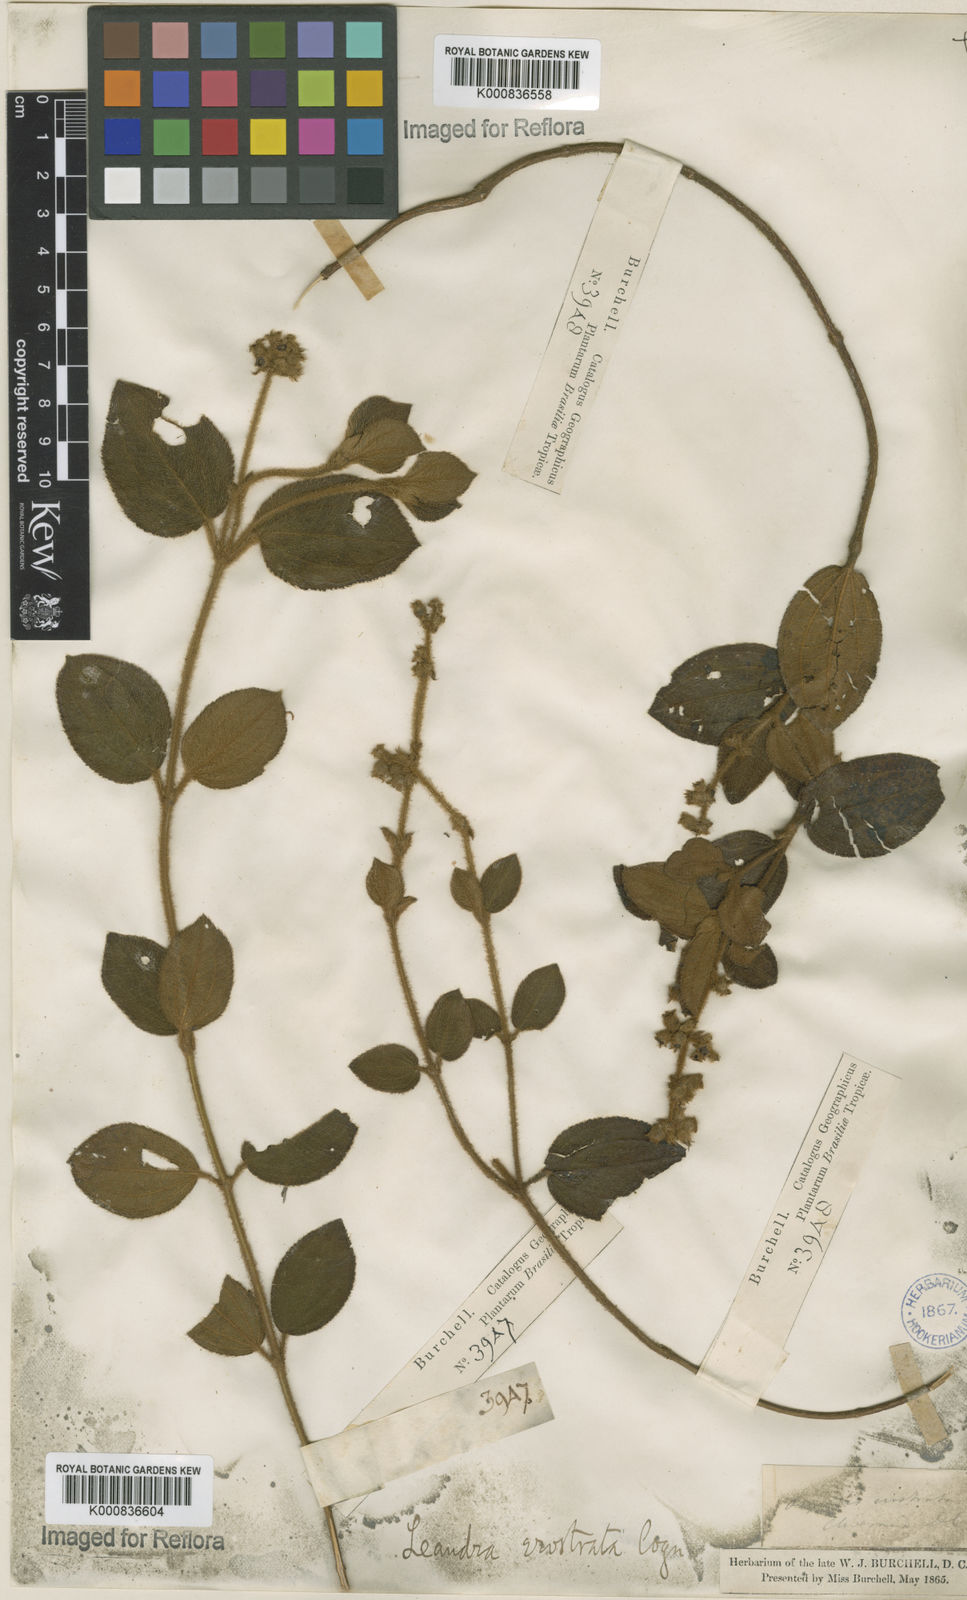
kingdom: Plantae
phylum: Tracheophyta
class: Magnoliopsida
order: Myrtales
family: Melastomataceae
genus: Miconia
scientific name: Miconia erostrata
